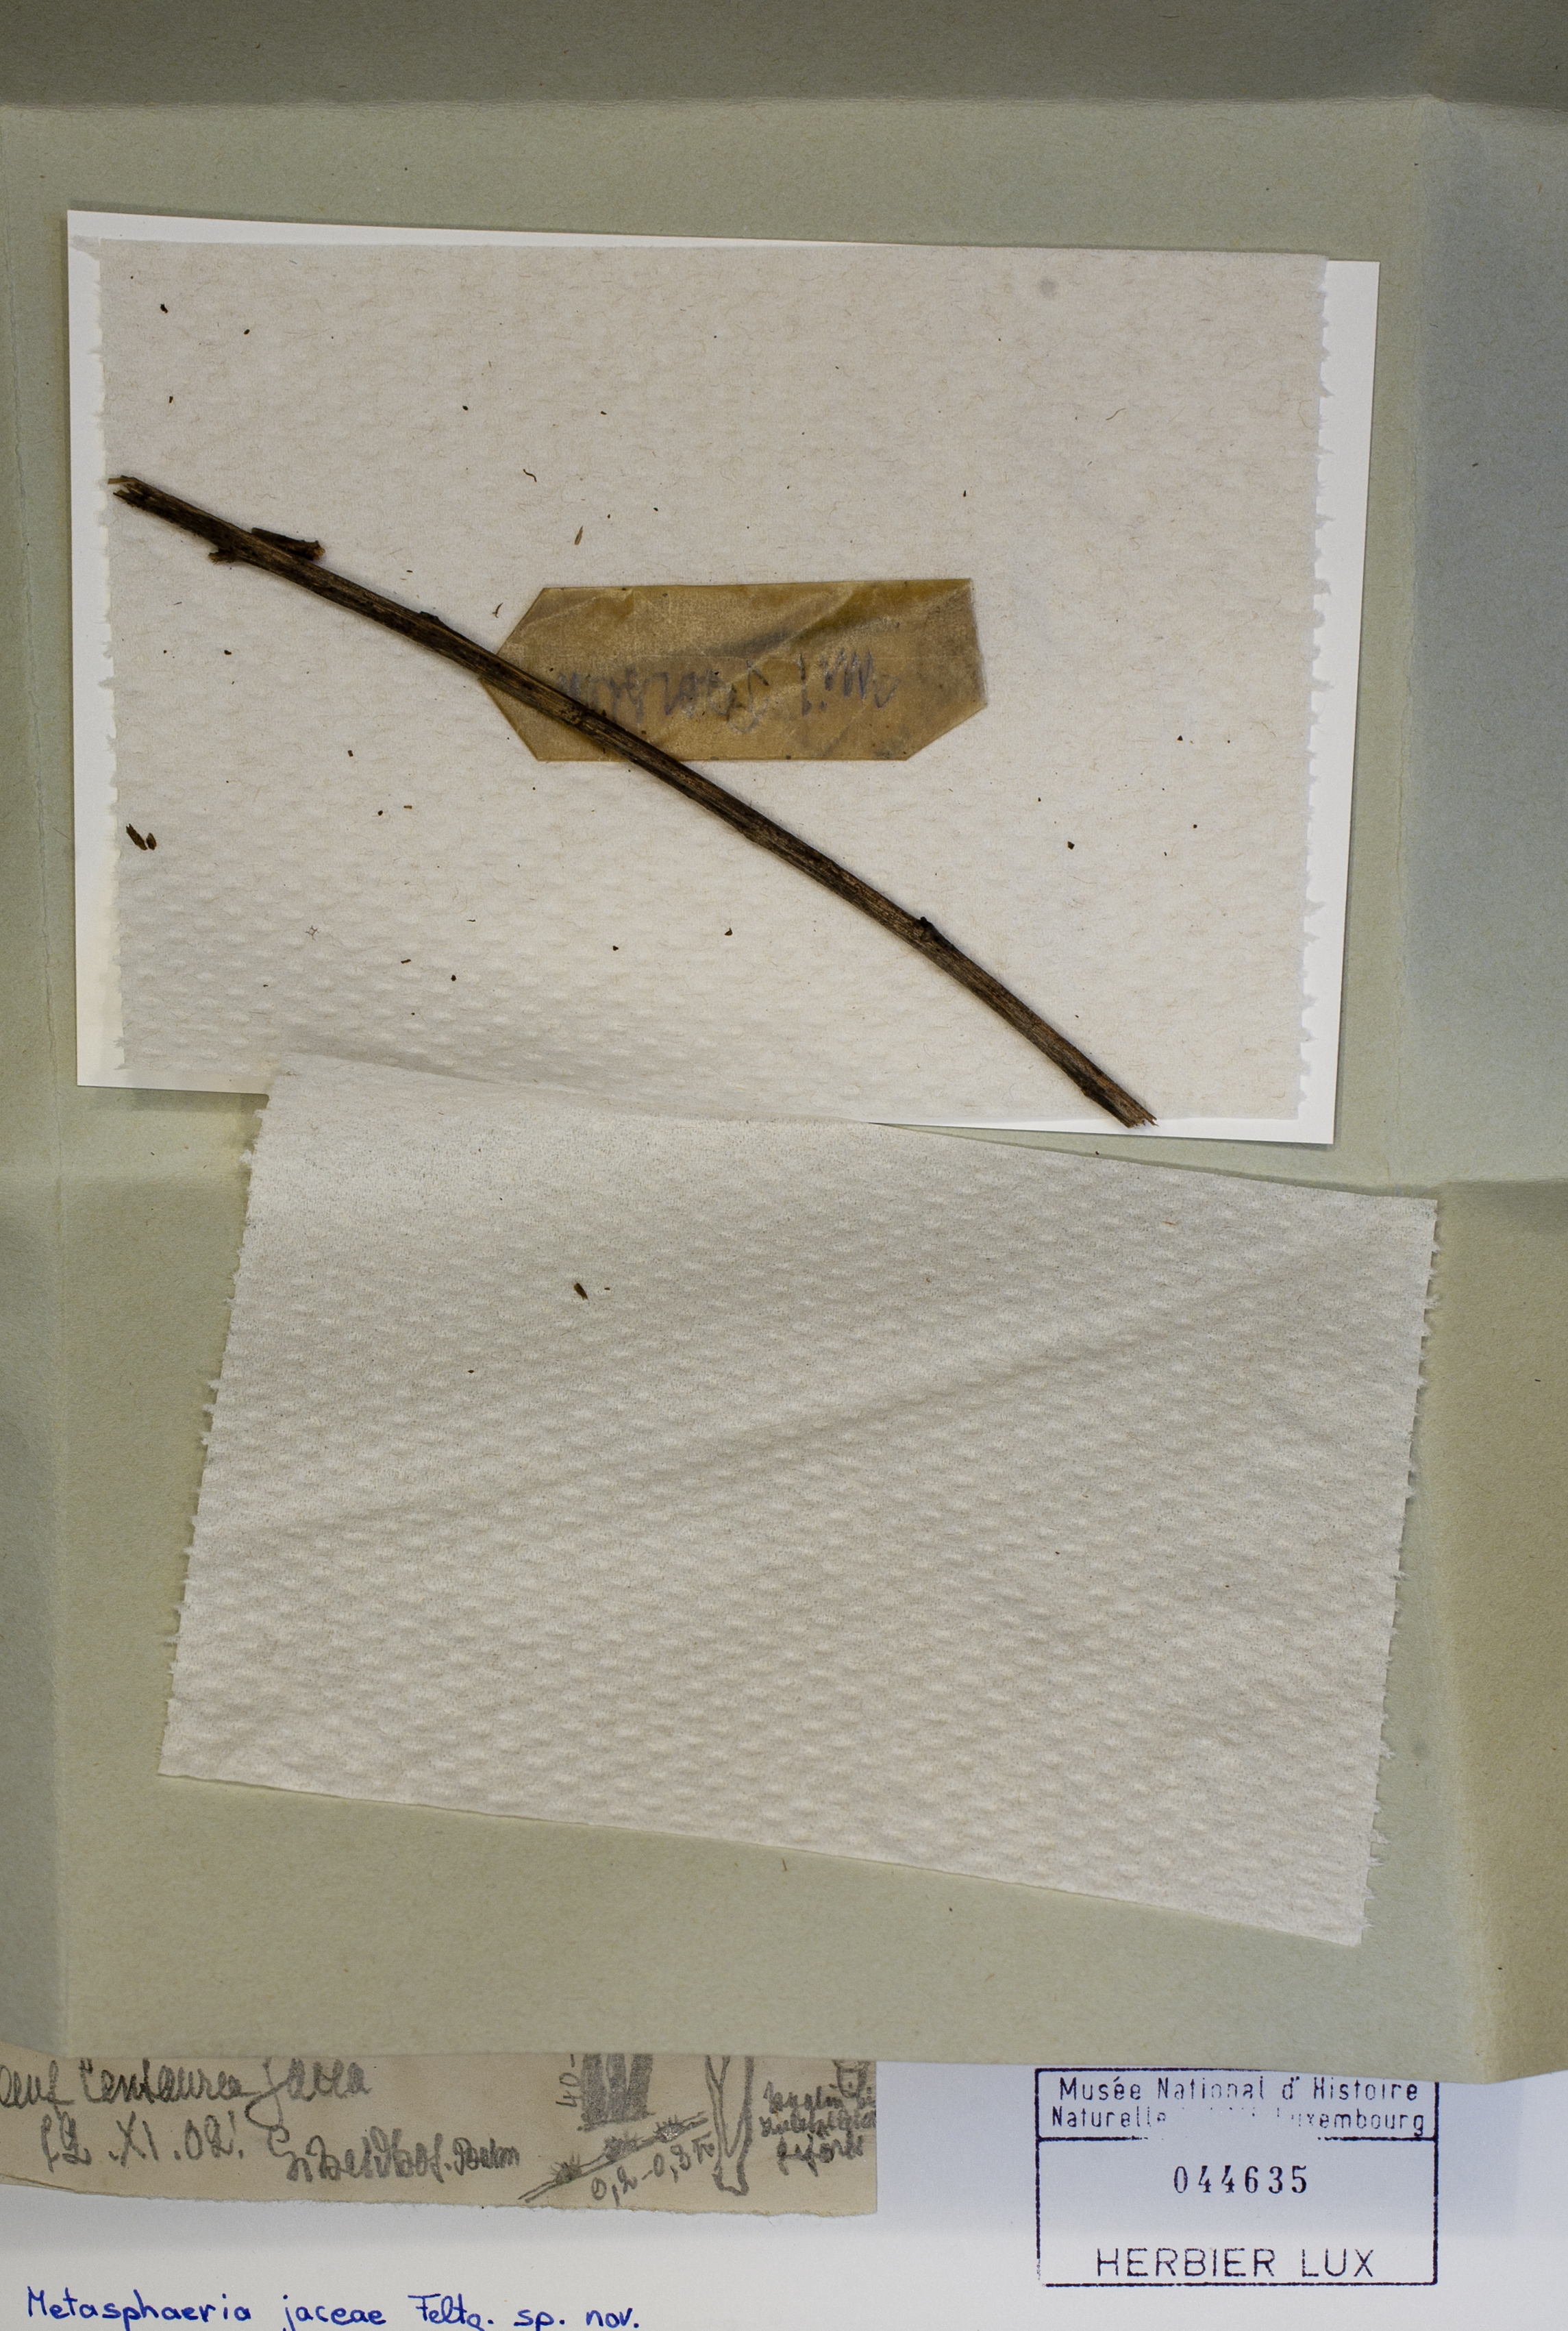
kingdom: Fungi
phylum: Ascomycota
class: Dothideomycetes
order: Dothideales
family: Saccotheciaceae
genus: Metasphaeria
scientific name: Metasphaeria jaceae
